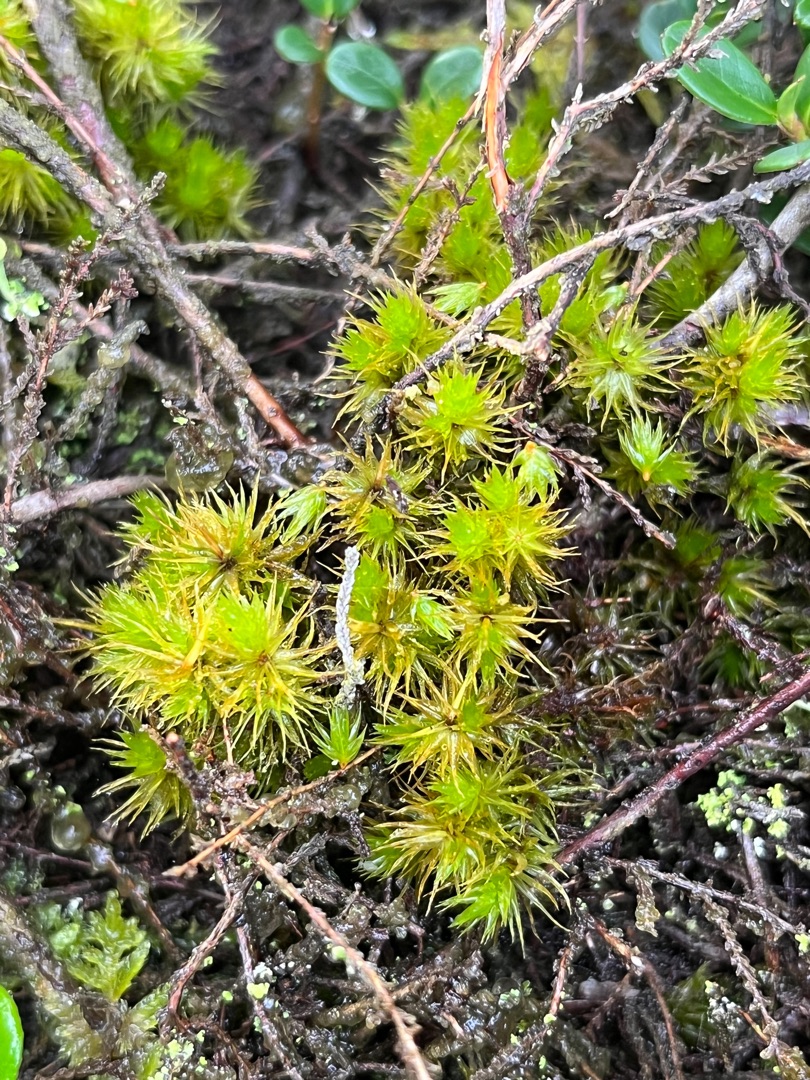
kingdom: Plantae
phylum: Bryophyta
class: Bryopsida
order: Dicranales
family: Dicranaceae
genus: Dicranum
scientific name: Dicranum spurium
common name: Hede-kløvtand
